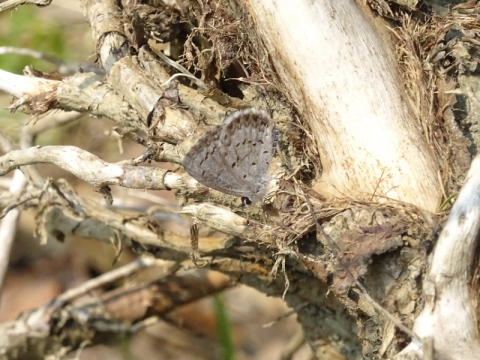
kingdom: Animalia
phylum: Arthropoda
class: Insecta
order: Lepidoptera
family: Lycaenidae
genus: Celastrina
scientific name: Celastrina lucia
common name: Northern Spring Azure
